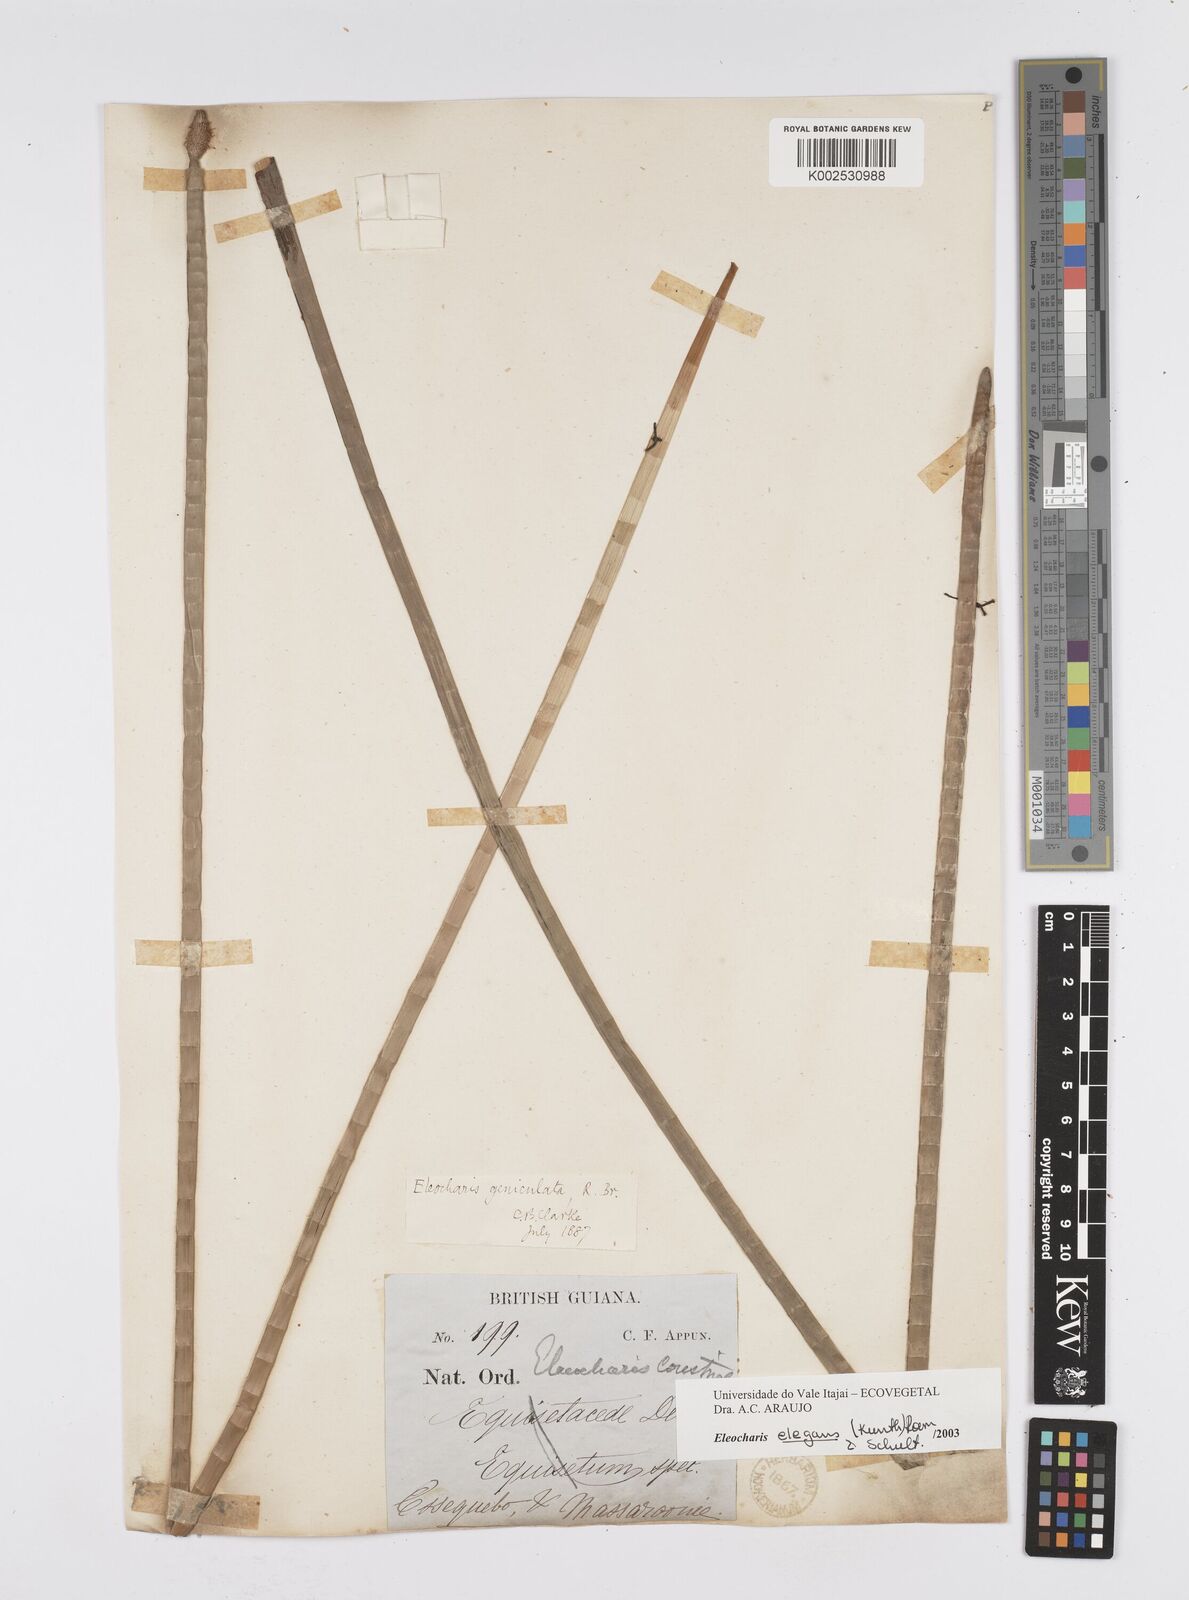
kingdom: Plantae
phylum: Tracheophyta
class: Liliopsida
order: Poales
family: Cyperaceae
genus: Eleocharis
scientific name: Eleocharis elegans
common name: Elegant spike-rush
